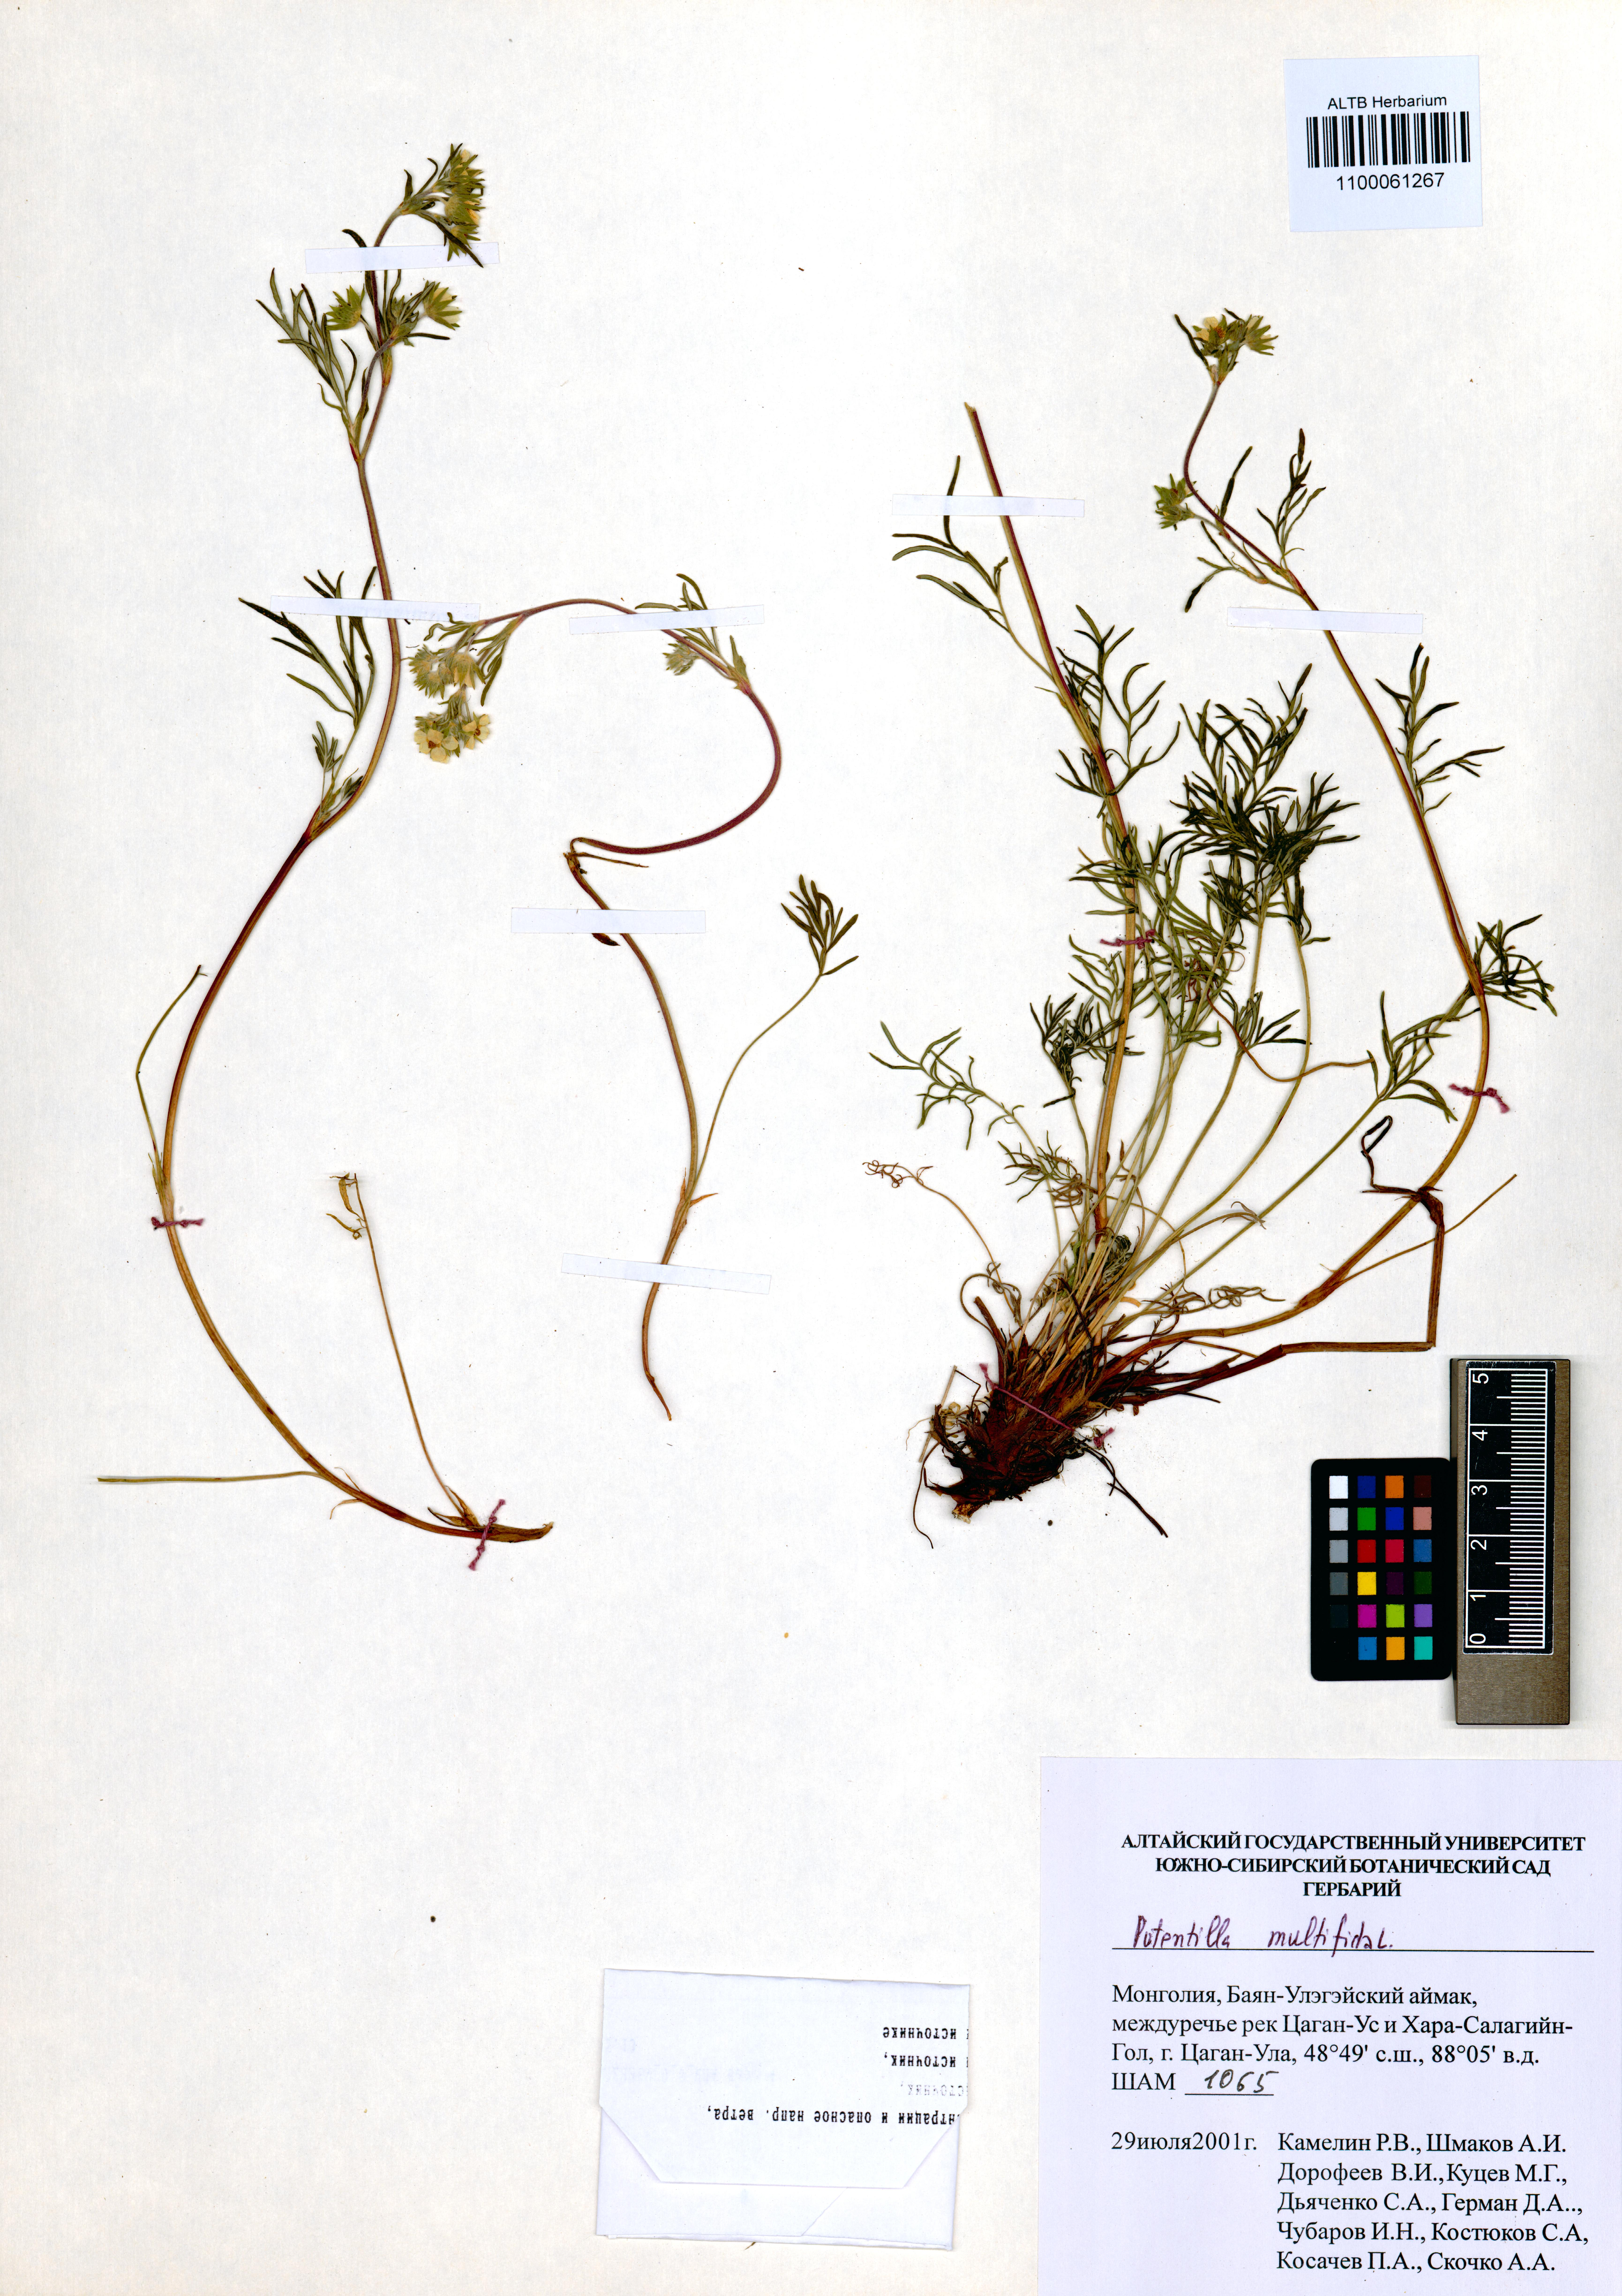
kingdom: Plantae
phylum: Tracheophyta
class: Magnoliopsida
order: Rosales
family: Rosaceae
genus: Potentilla
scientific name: Potentilla multifida
